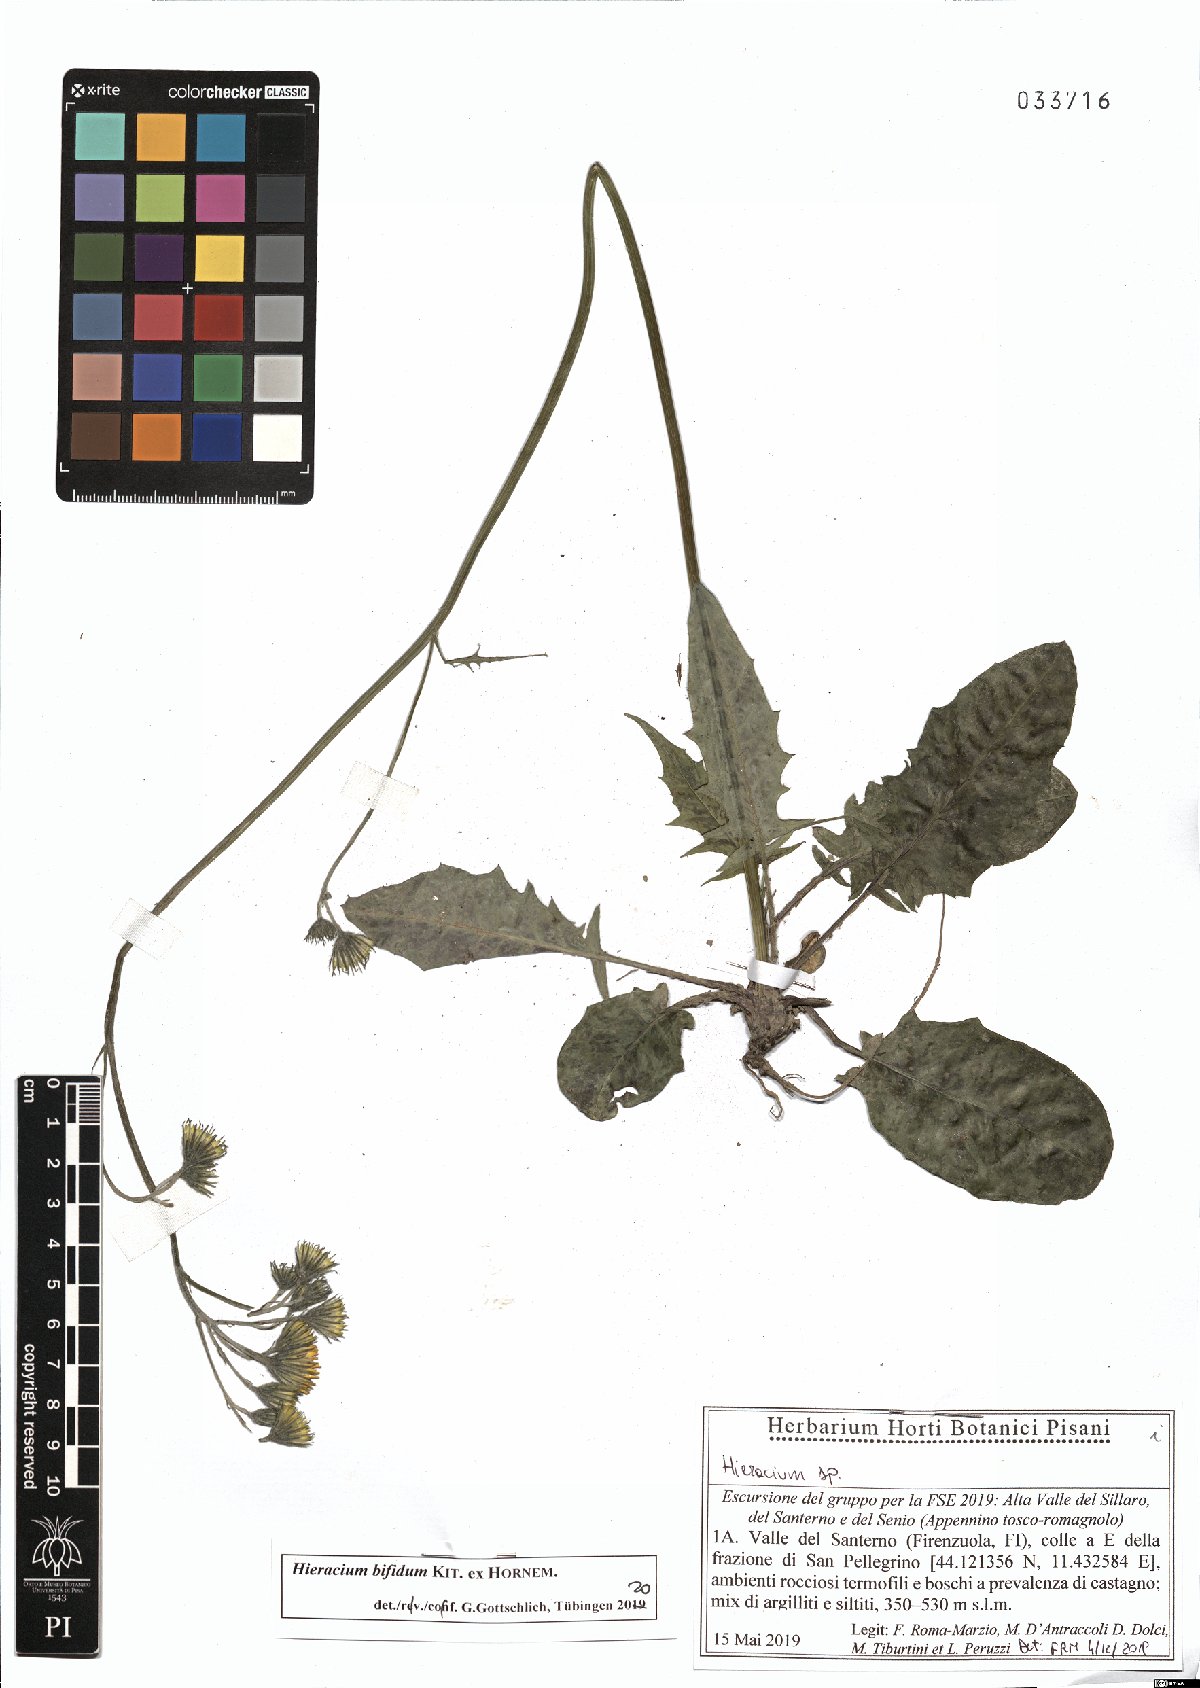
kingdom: Plantae
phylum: Tracheophyta
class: Magnoliopsida
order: Asterales
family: Asteraceae
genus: Hieracium
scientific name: Hieracium bifidum
